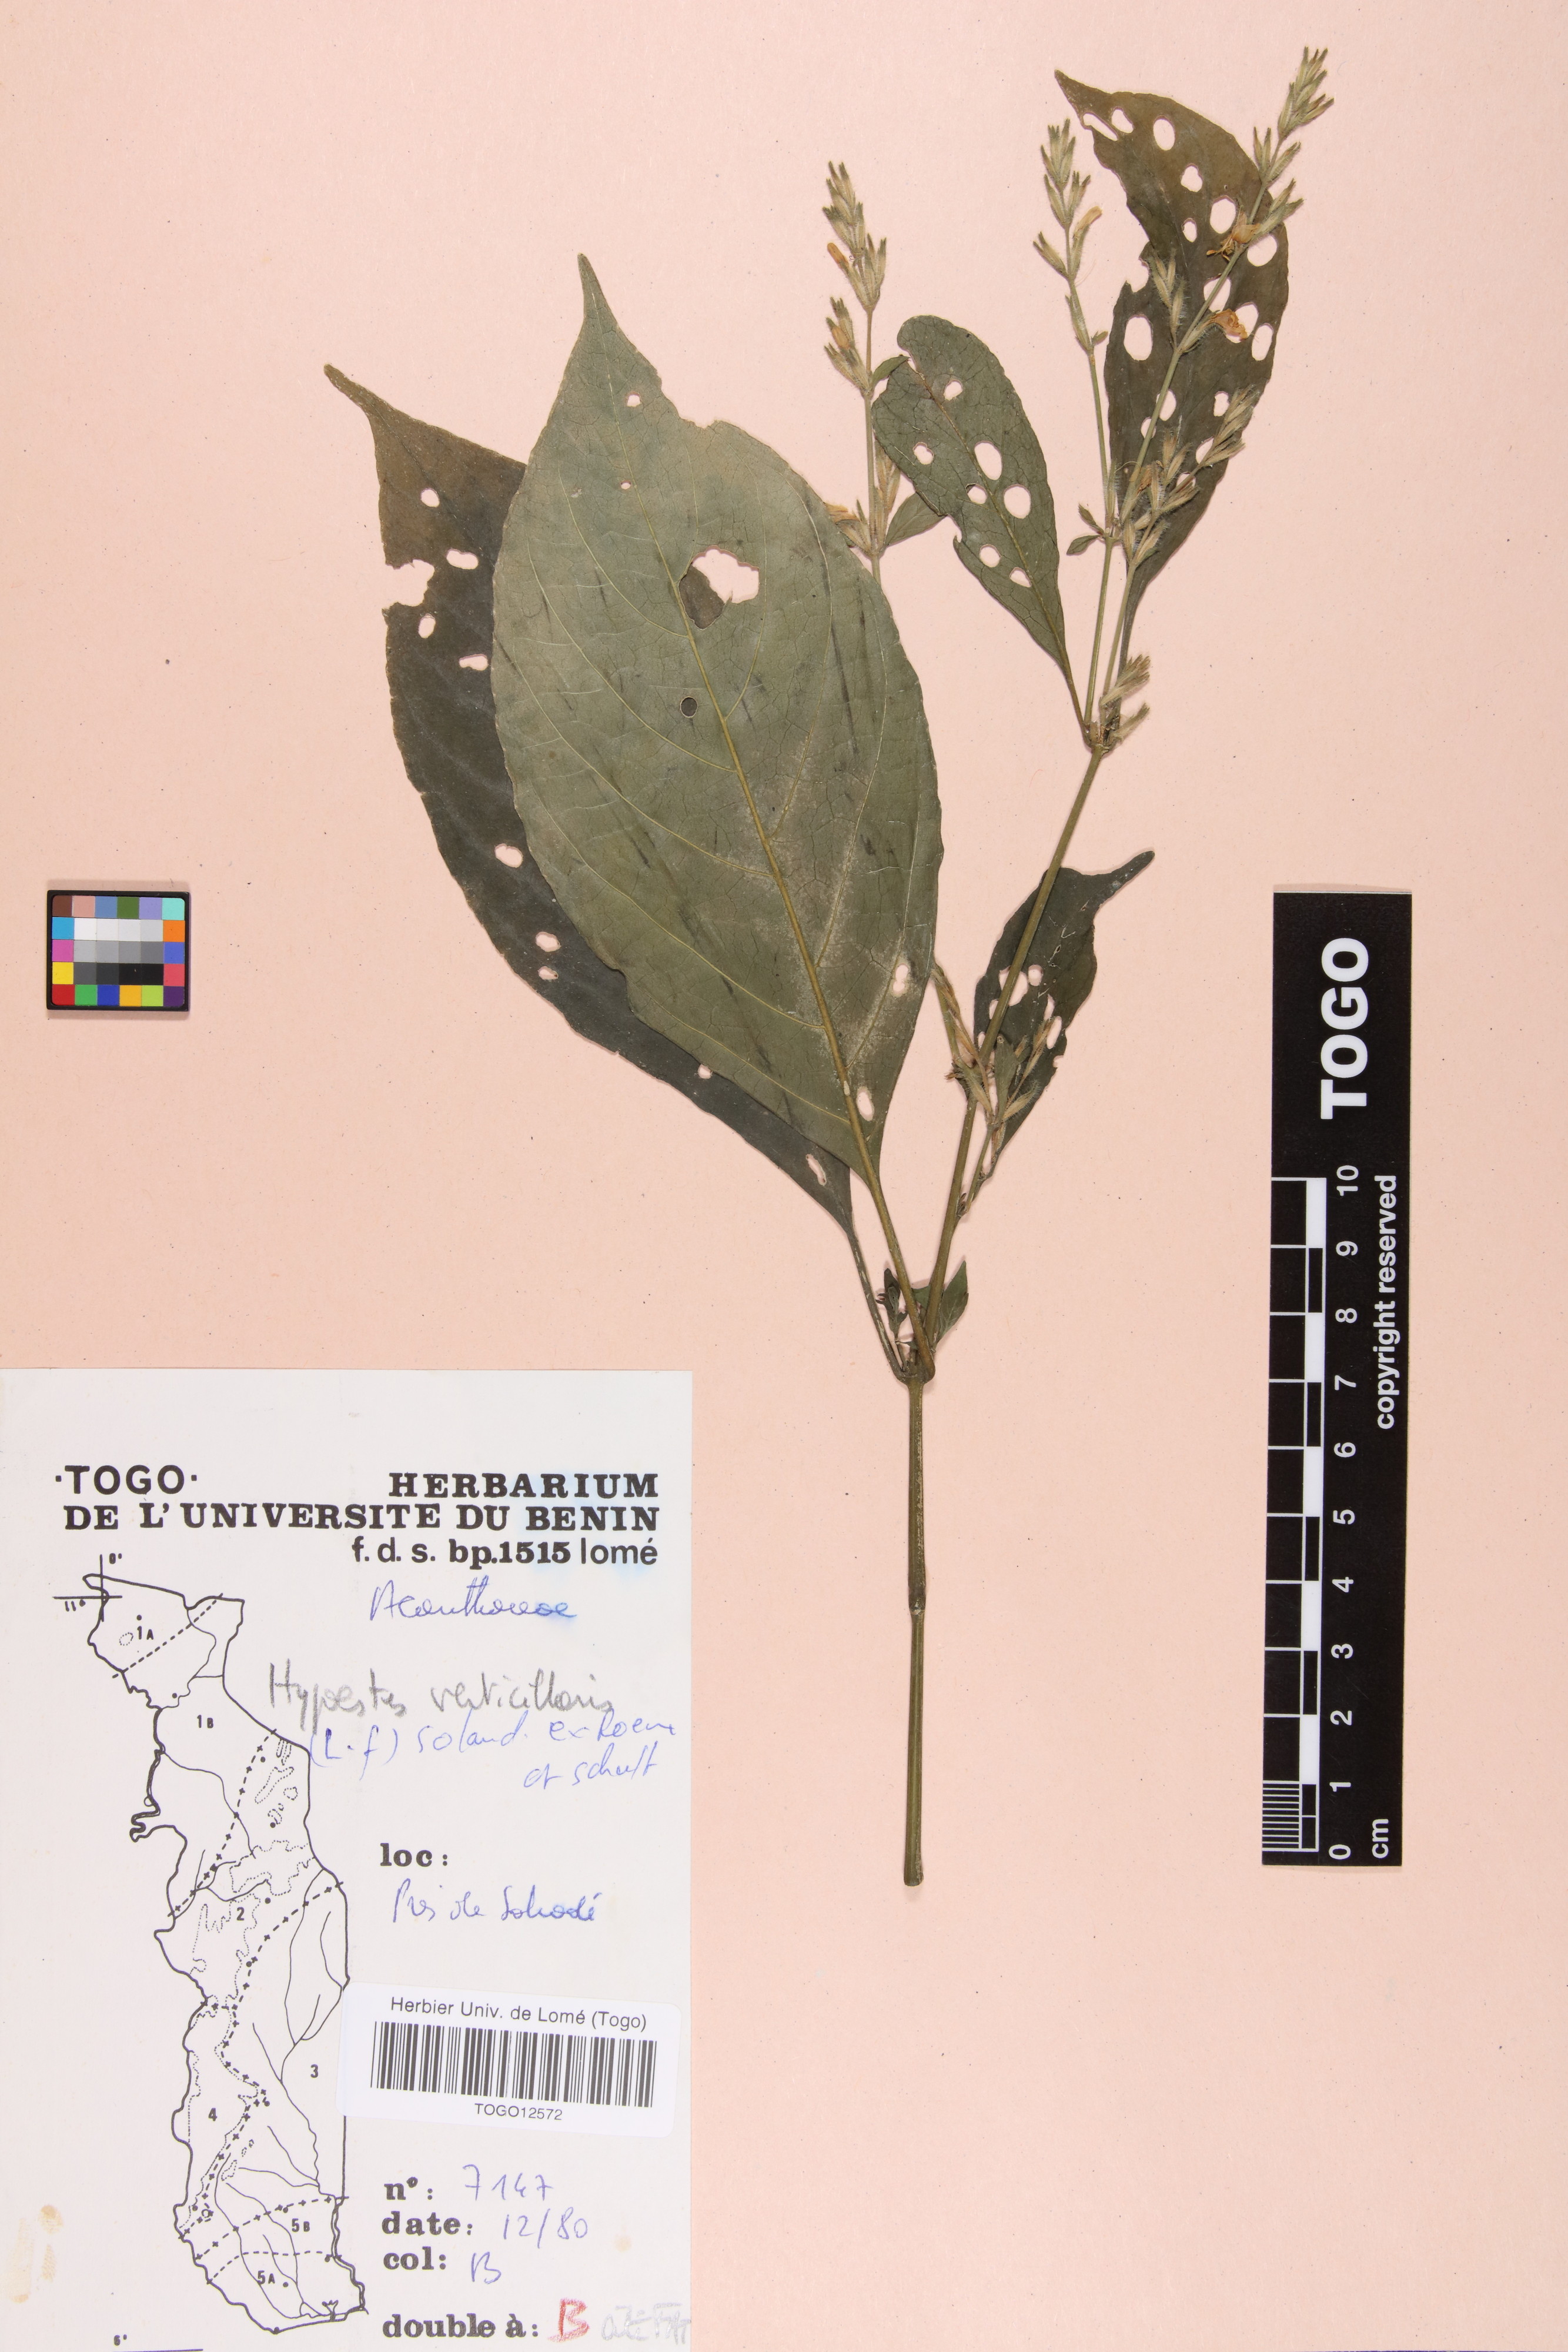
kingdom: Plantae
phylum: Tracheophyta
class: Magnoliopsida
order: Lamiales
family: Acanthaceae
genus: Hypoestes
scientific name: Hypoestes aristata
